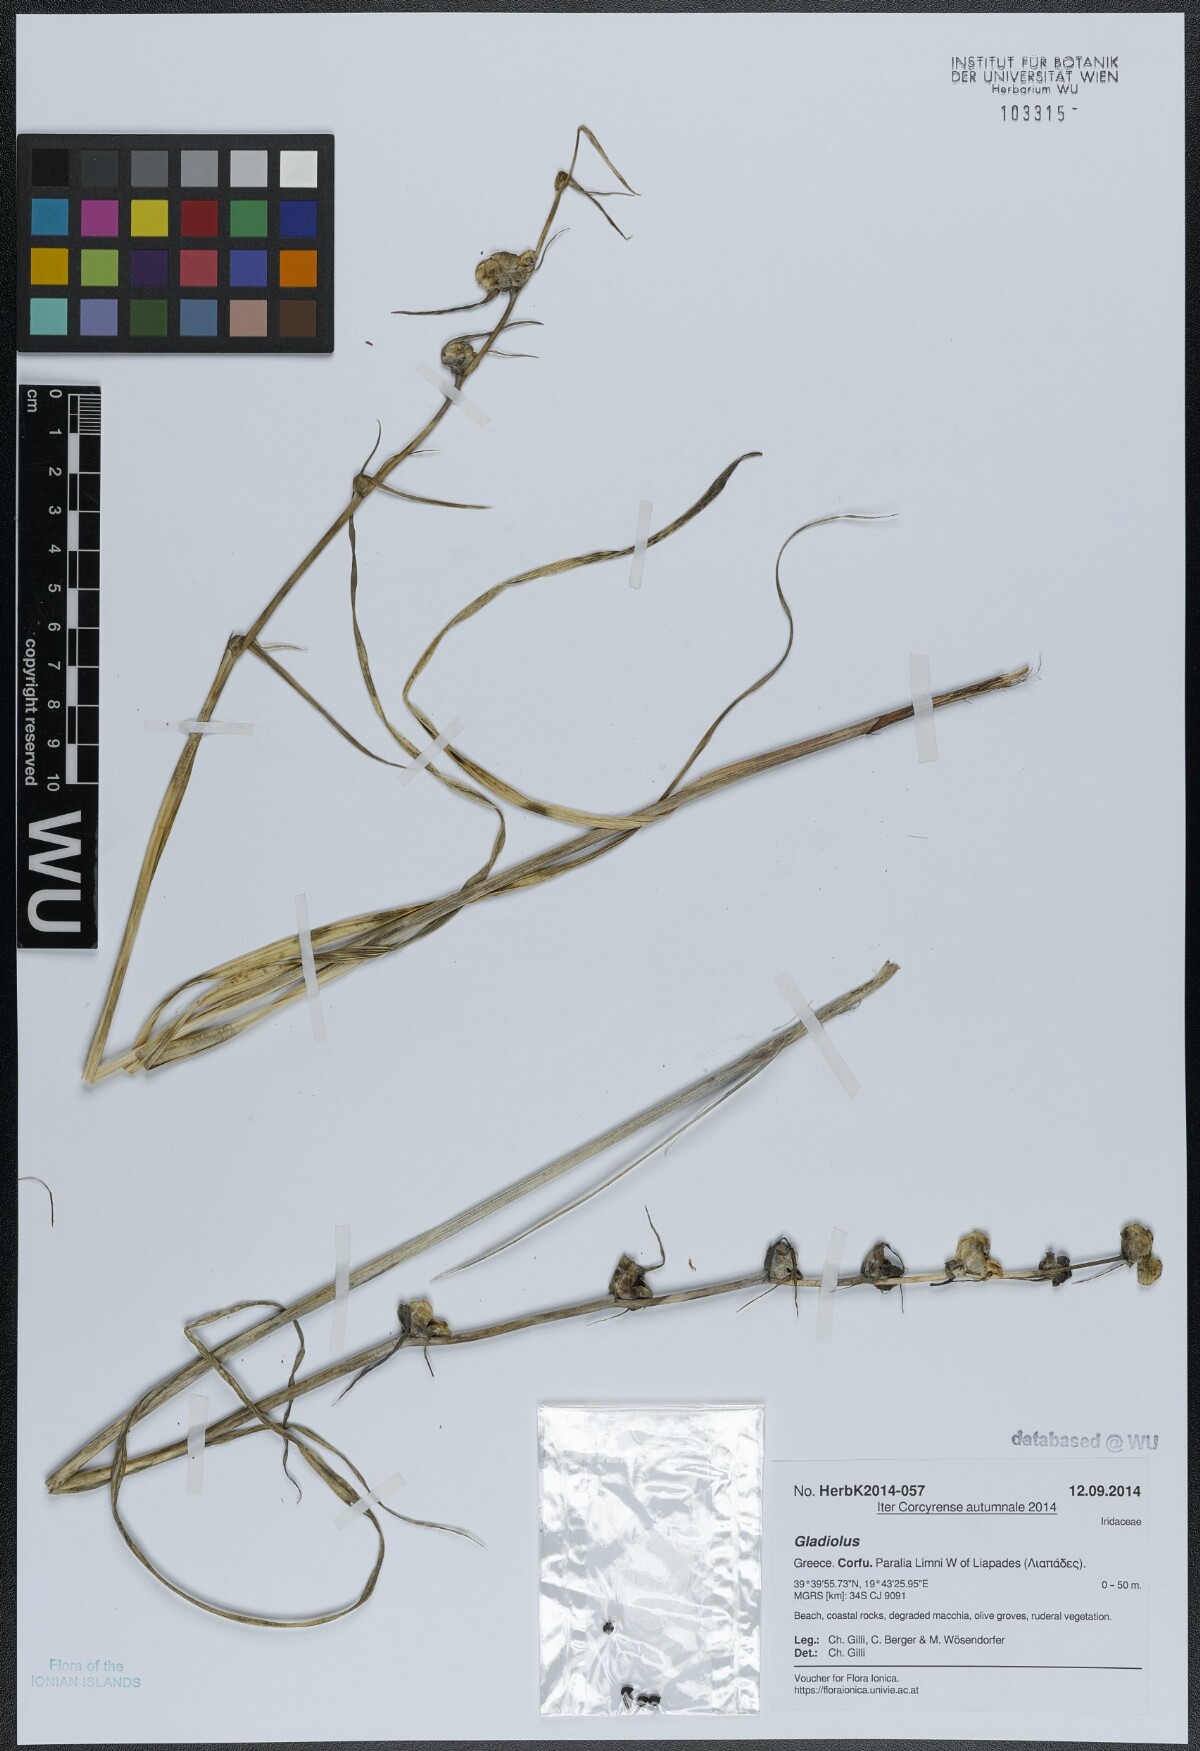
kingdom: Plantae
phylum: Tracheophyta
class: Liliopsida
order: Asparagales
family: Iridaceae
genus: Gladiolus
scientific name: Gladiolus
